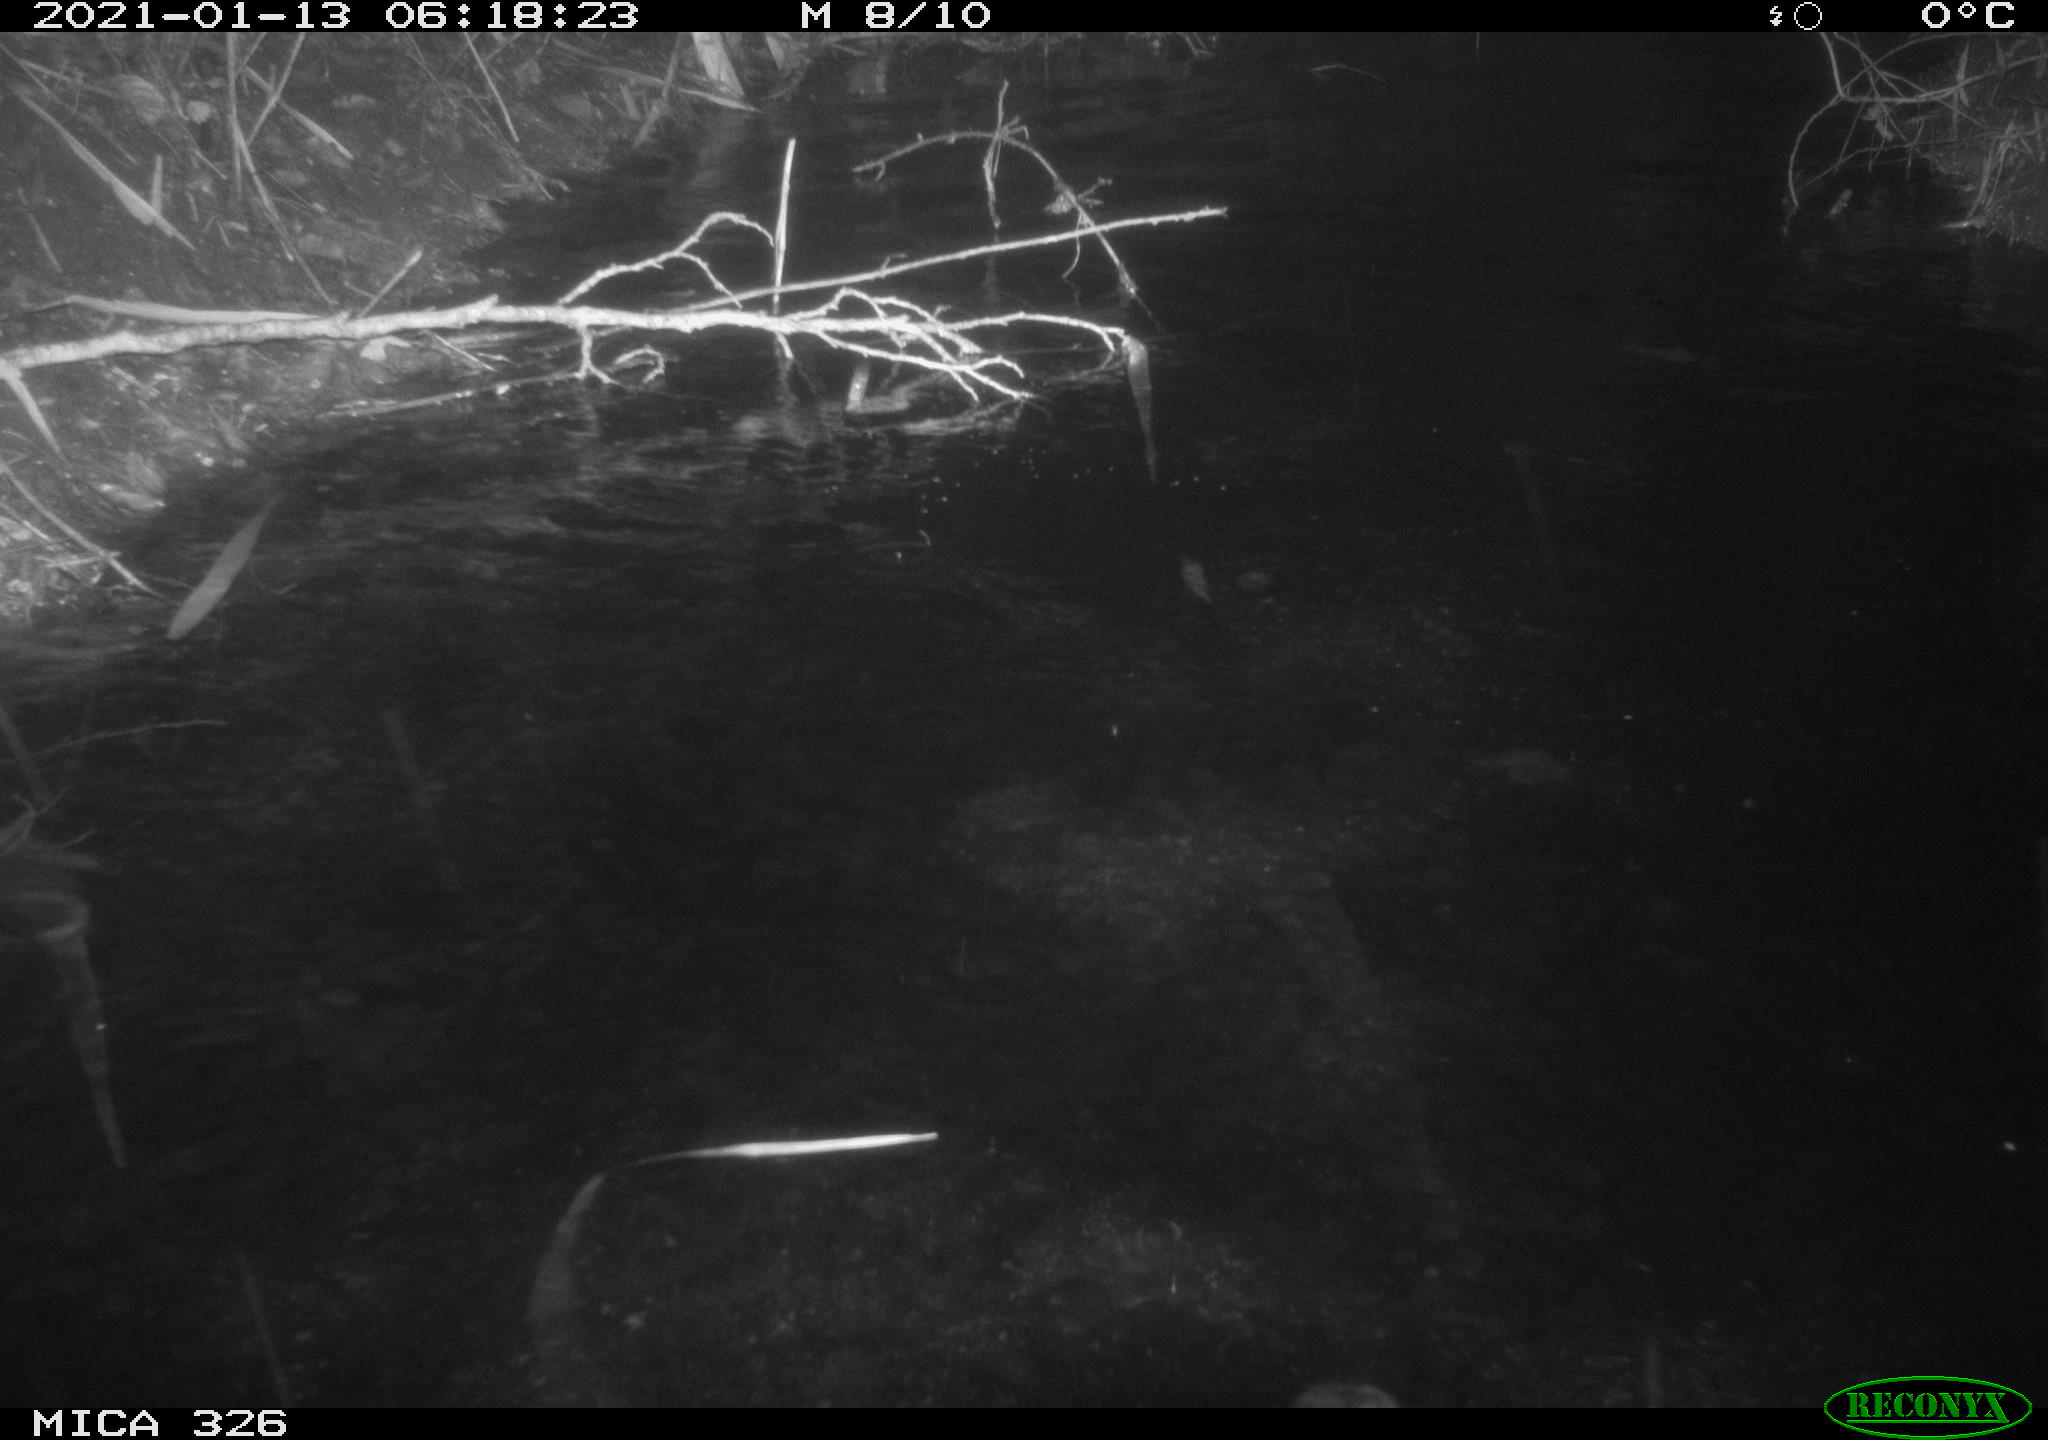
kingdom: Animalia
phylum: Chordata
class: Mammalia
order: Rodentia
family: Myocastoridae
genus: Myocastor
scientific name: Myocastor coypus
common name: Coypu
